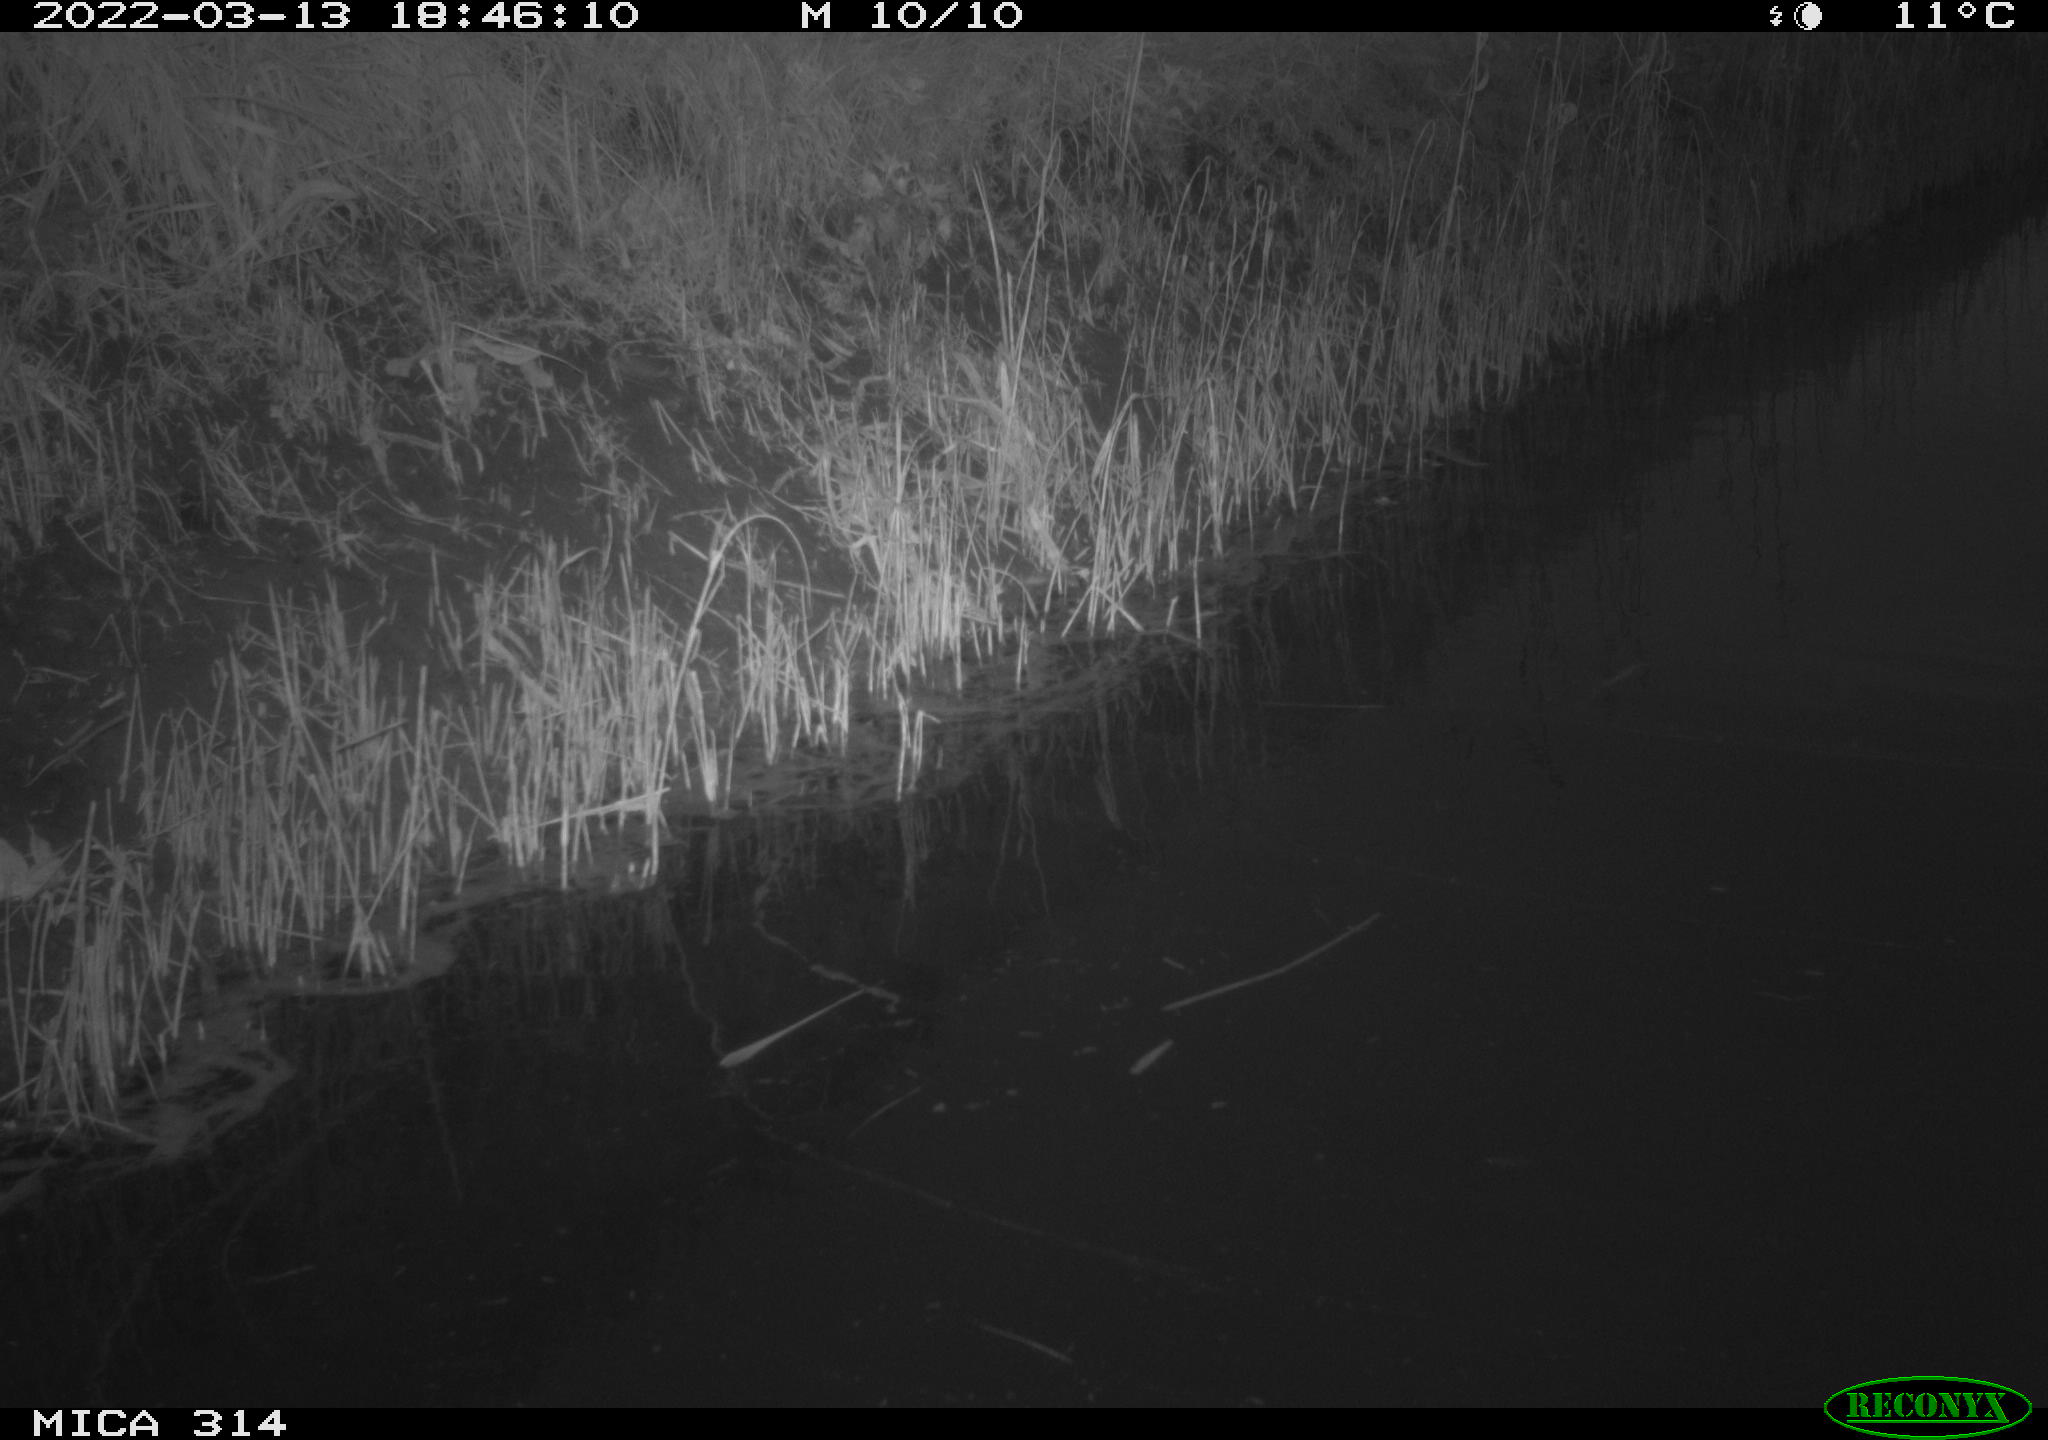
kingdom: Animalia
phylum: Chordata
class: Aves
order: Gruiformes
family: Rallidae
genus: Gallinula
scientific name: Gallinula chloropus
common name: Common moorhen
